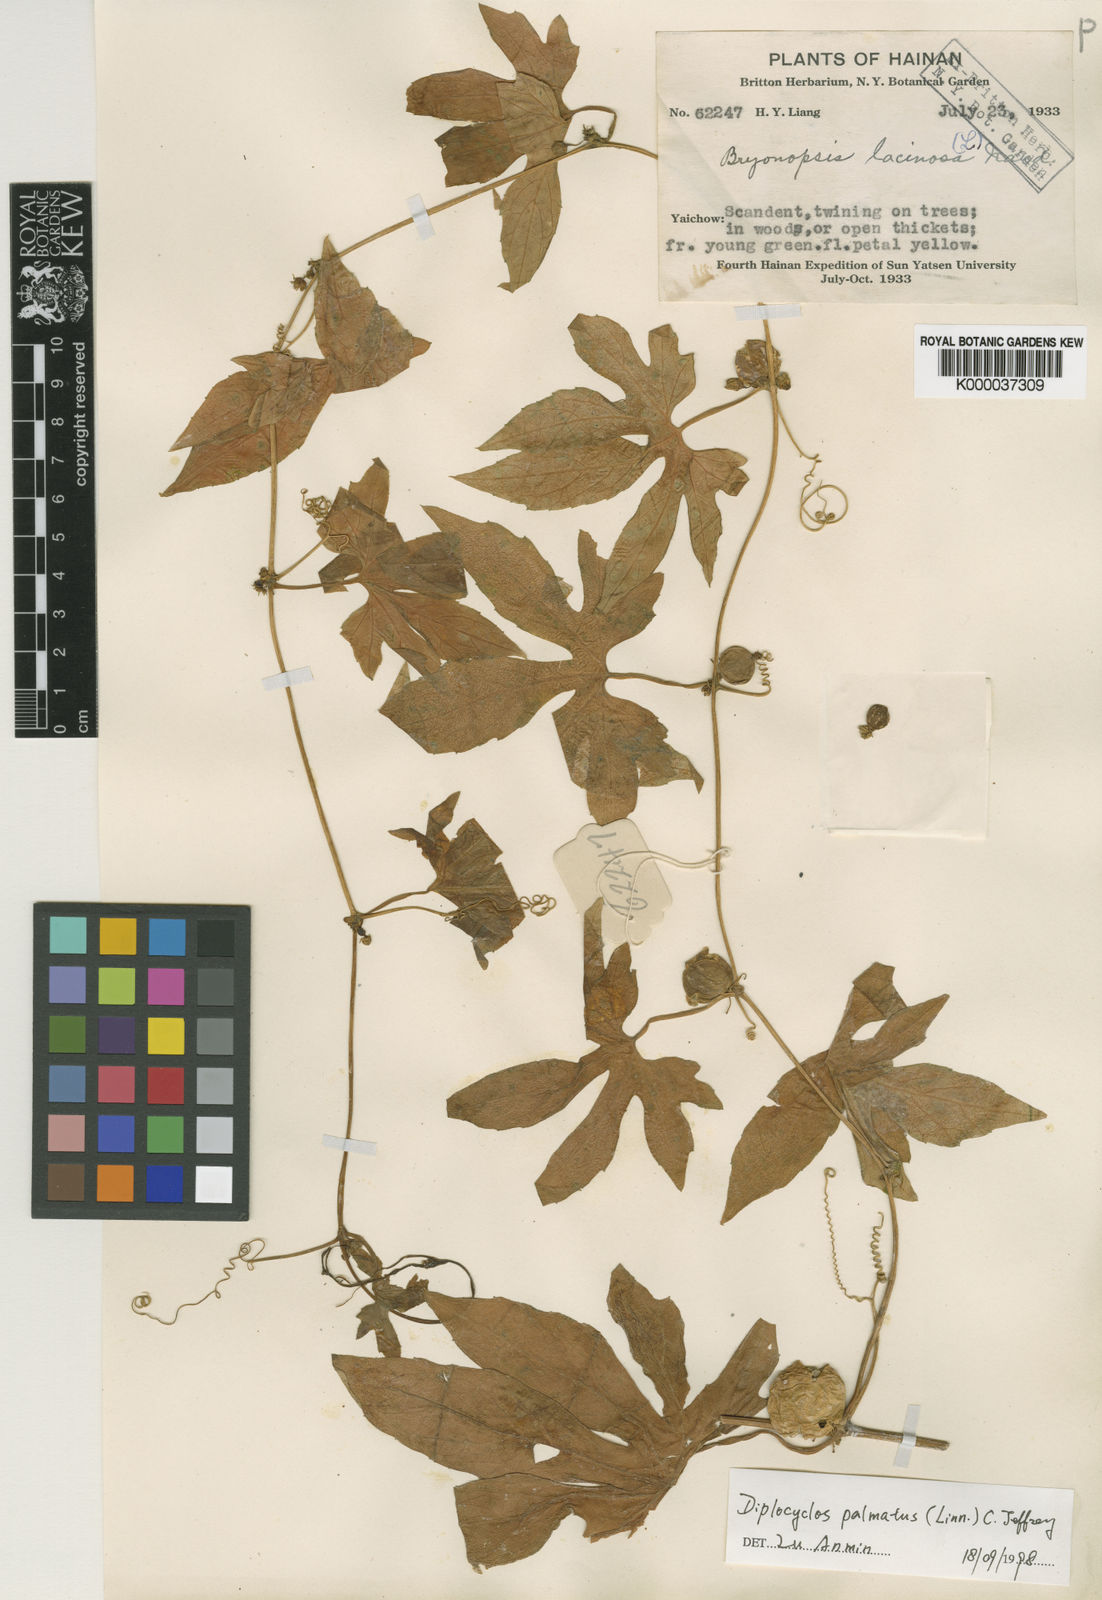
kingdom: Plantae
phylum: Tracheophyta
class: Magnoliopsida
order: Cucurbitales
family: Cucurbitaceae
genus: Diplocyclos
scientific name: Diplocyclos palmatus
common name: Striped-cucumber
